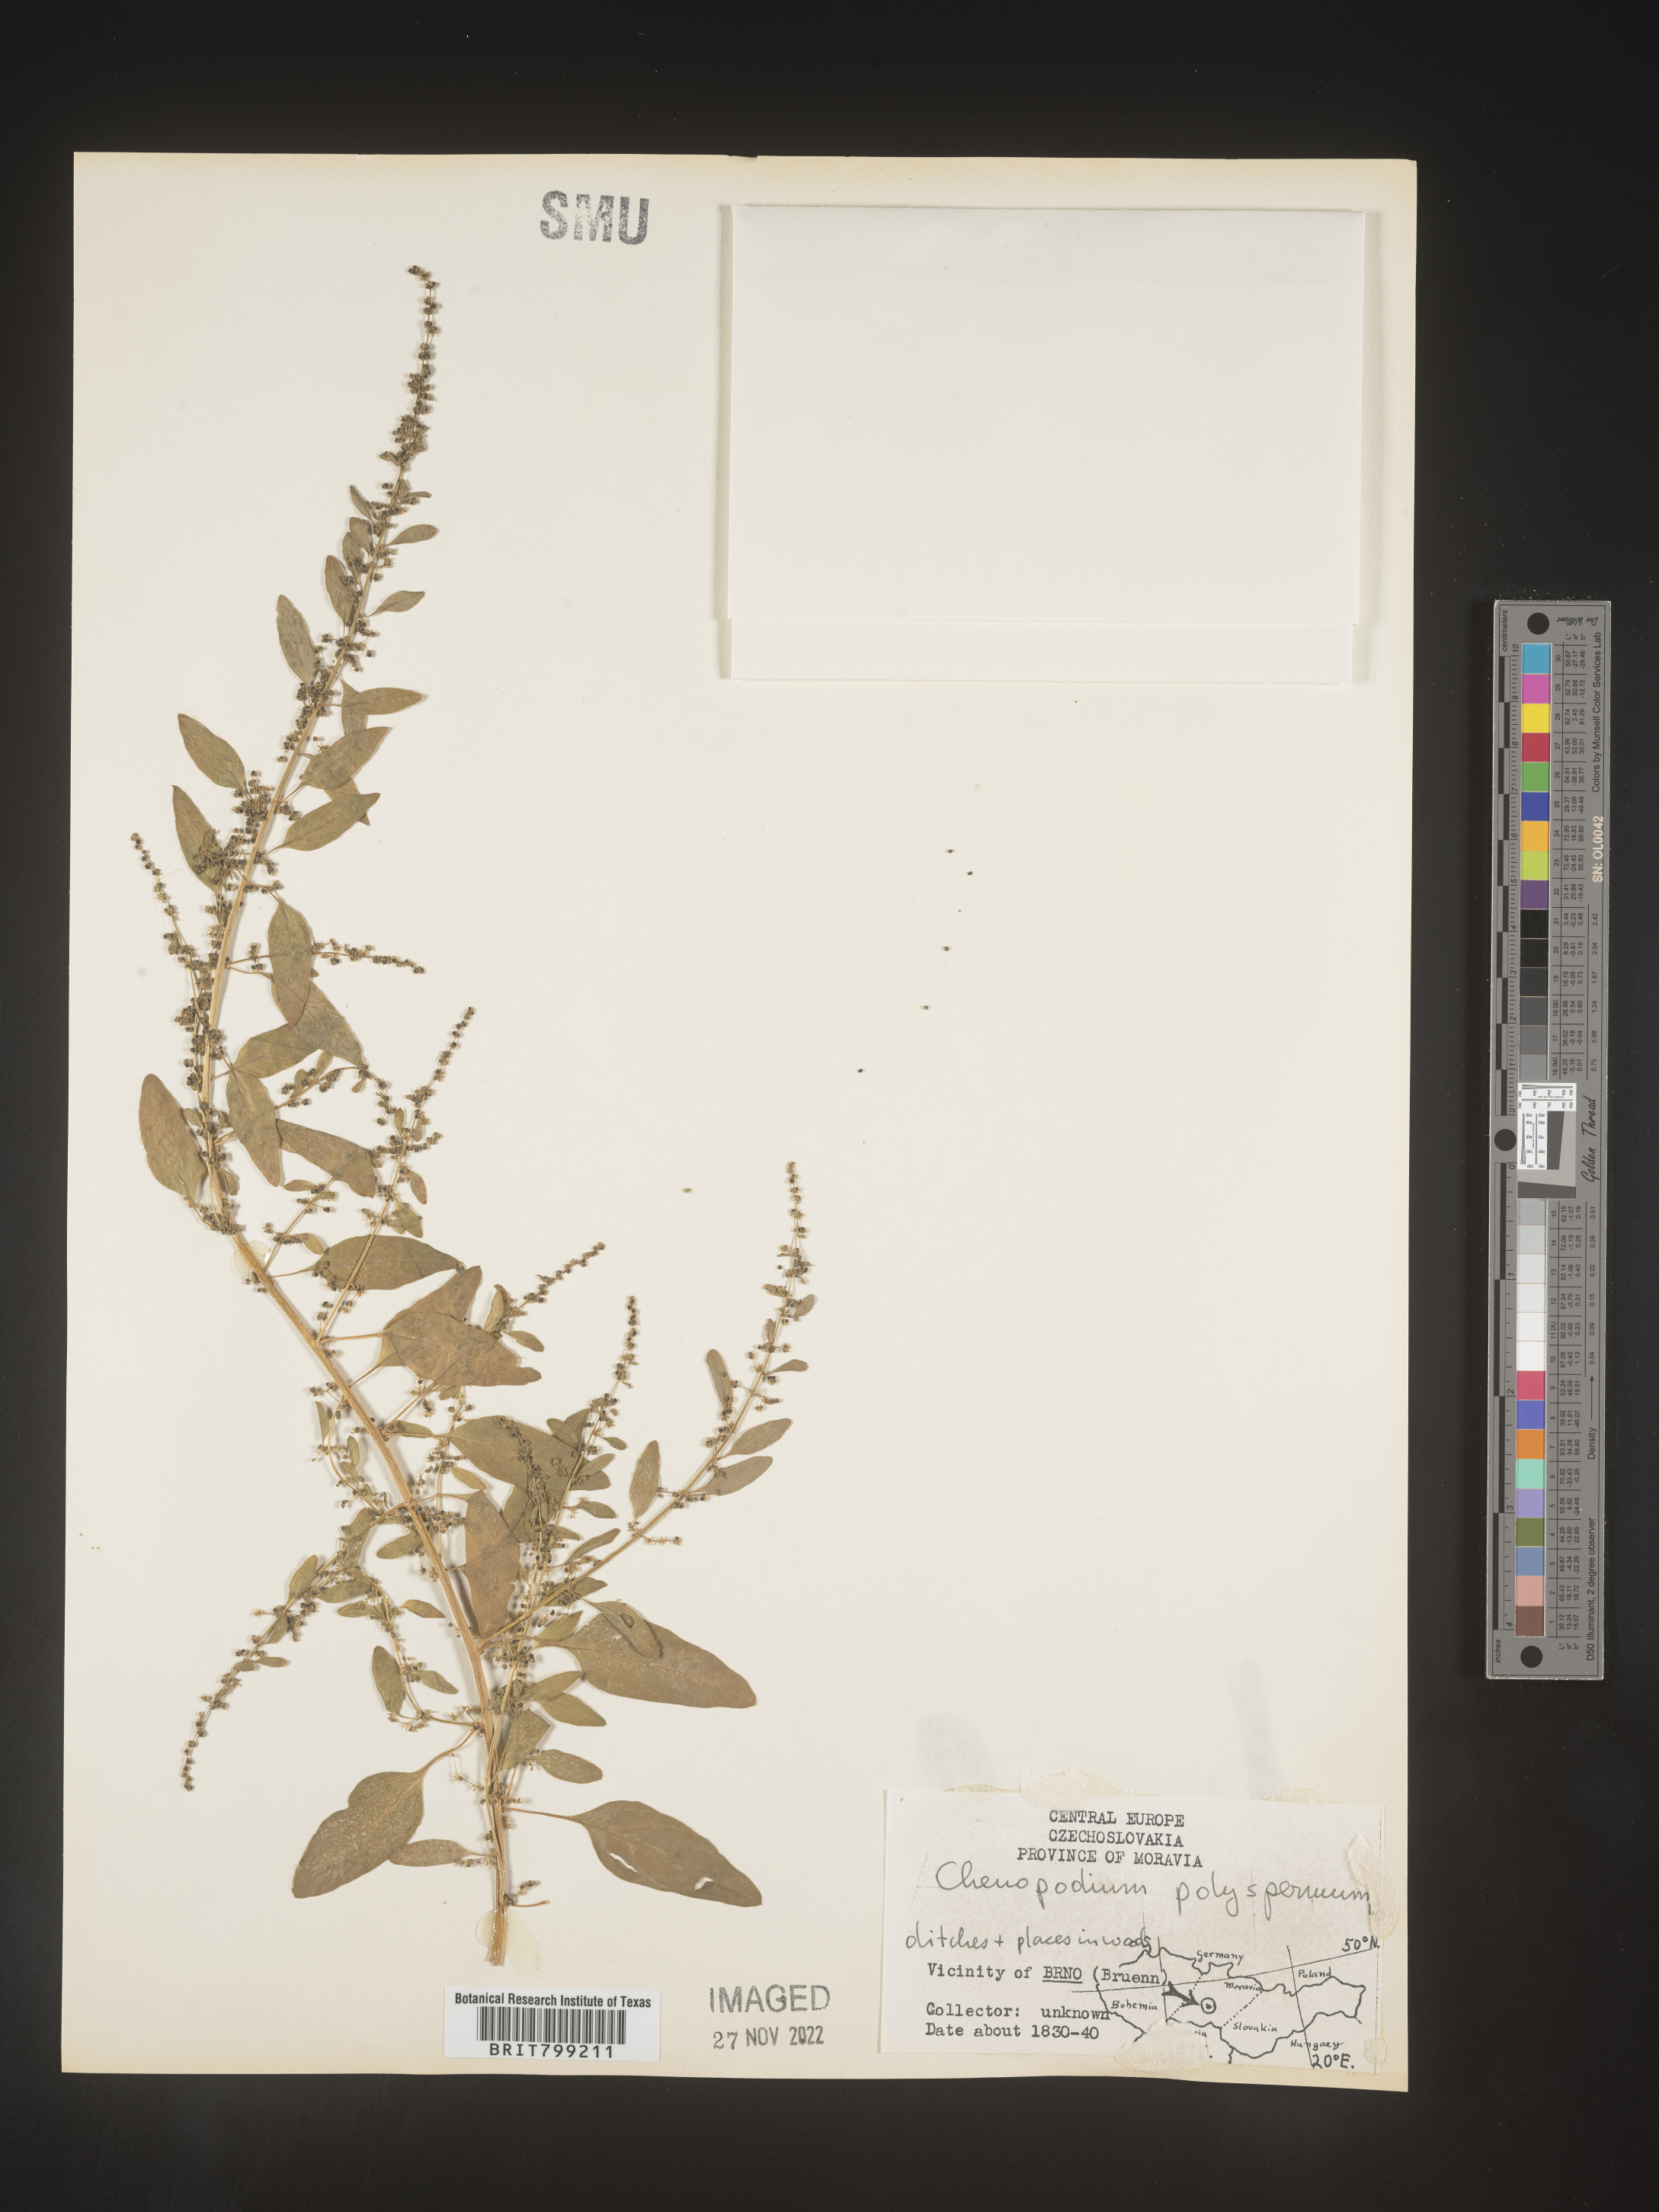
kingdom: Plantae
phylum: Tracheophyta
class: Magnoliopsida
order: Caryophyllales
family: Amaranthaceae
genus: Chenopodium
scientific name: Chenopodium
